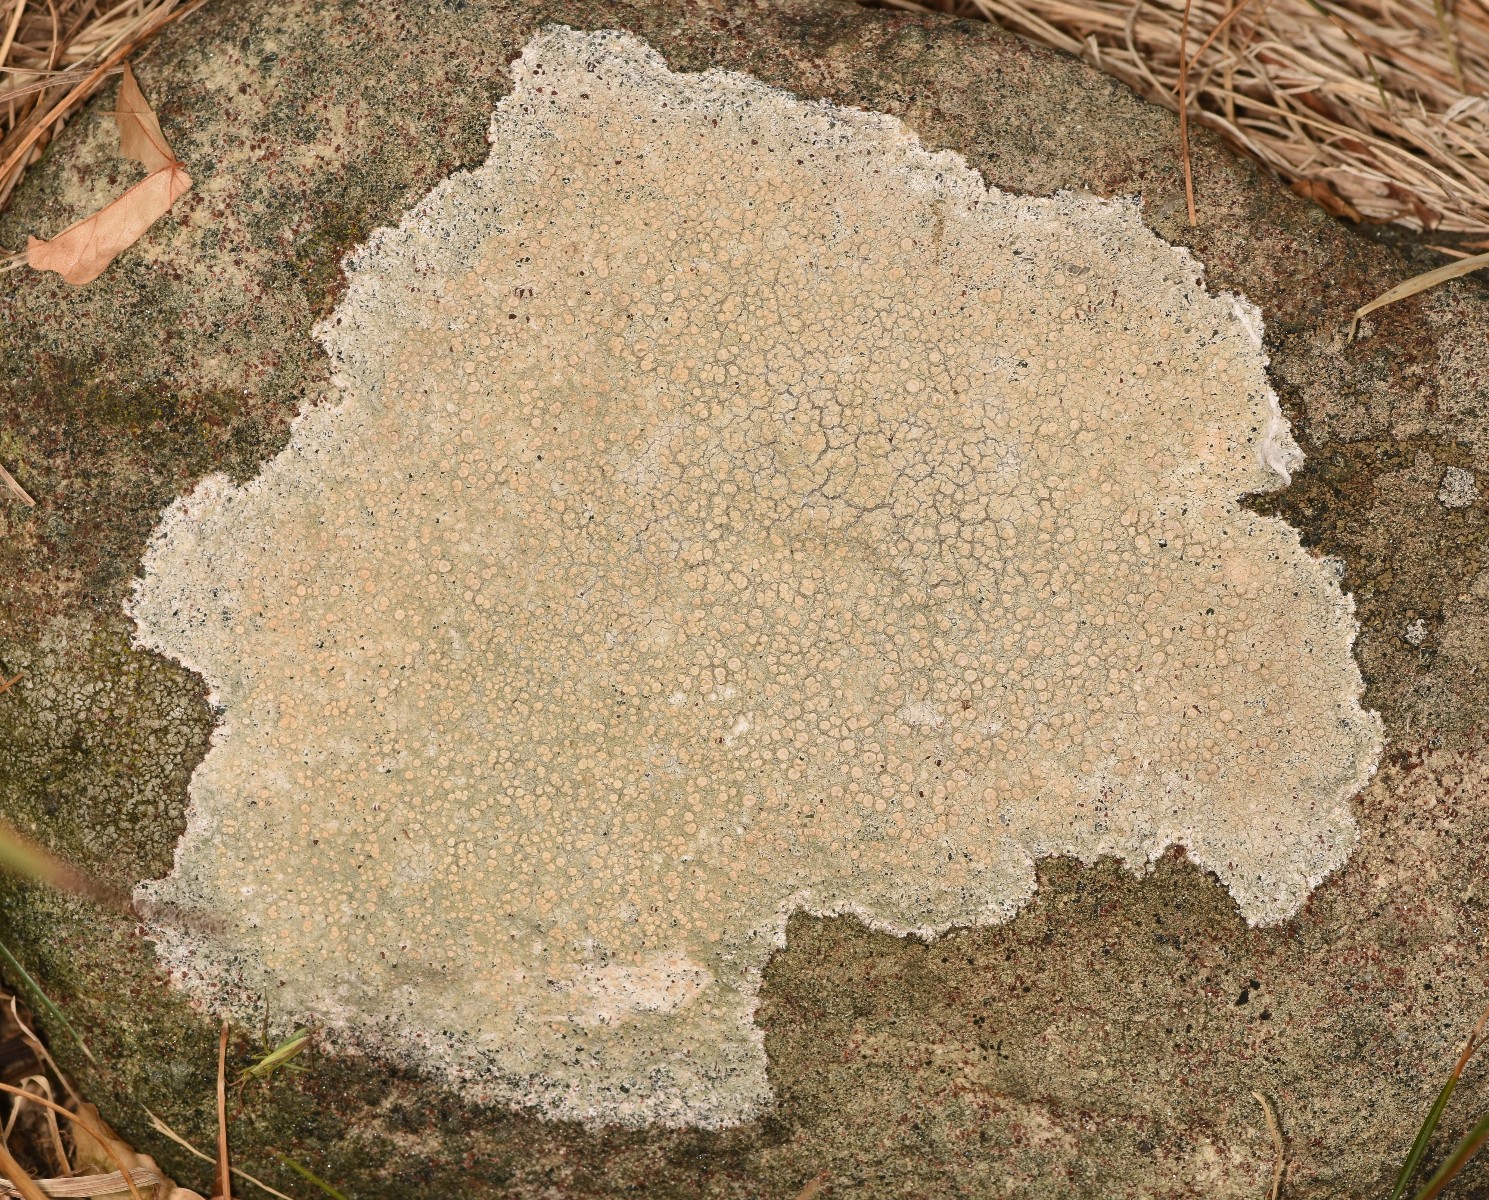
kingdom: Fungi
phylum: Ascomycota
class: Lecanoromycetes
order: Pertusariales
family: Ochrolechiaceae
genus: Ochrolechia
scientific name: Ochrolechia parella
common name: almindelig blegskivelav
